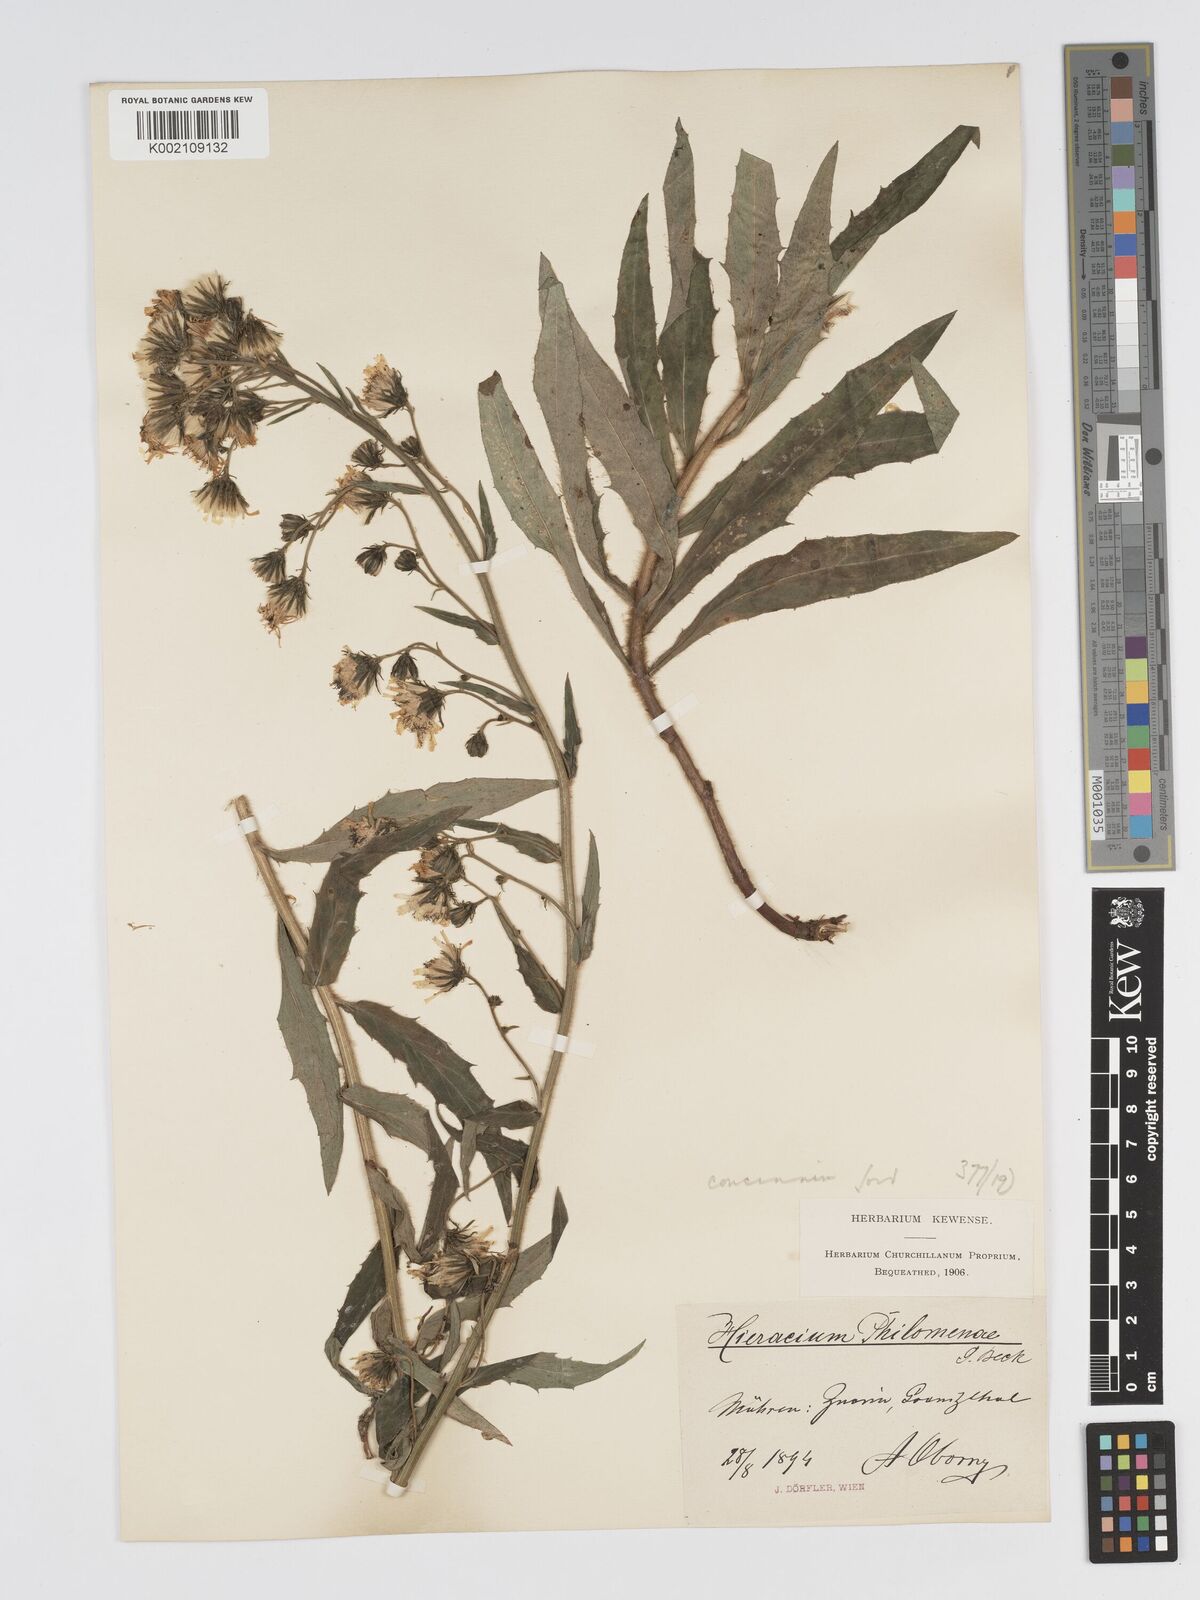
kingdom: Plantae
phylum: Tracheophyta
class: Magnoliopsida
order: Asterales
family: Asteraceae
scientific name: Asteraceae
